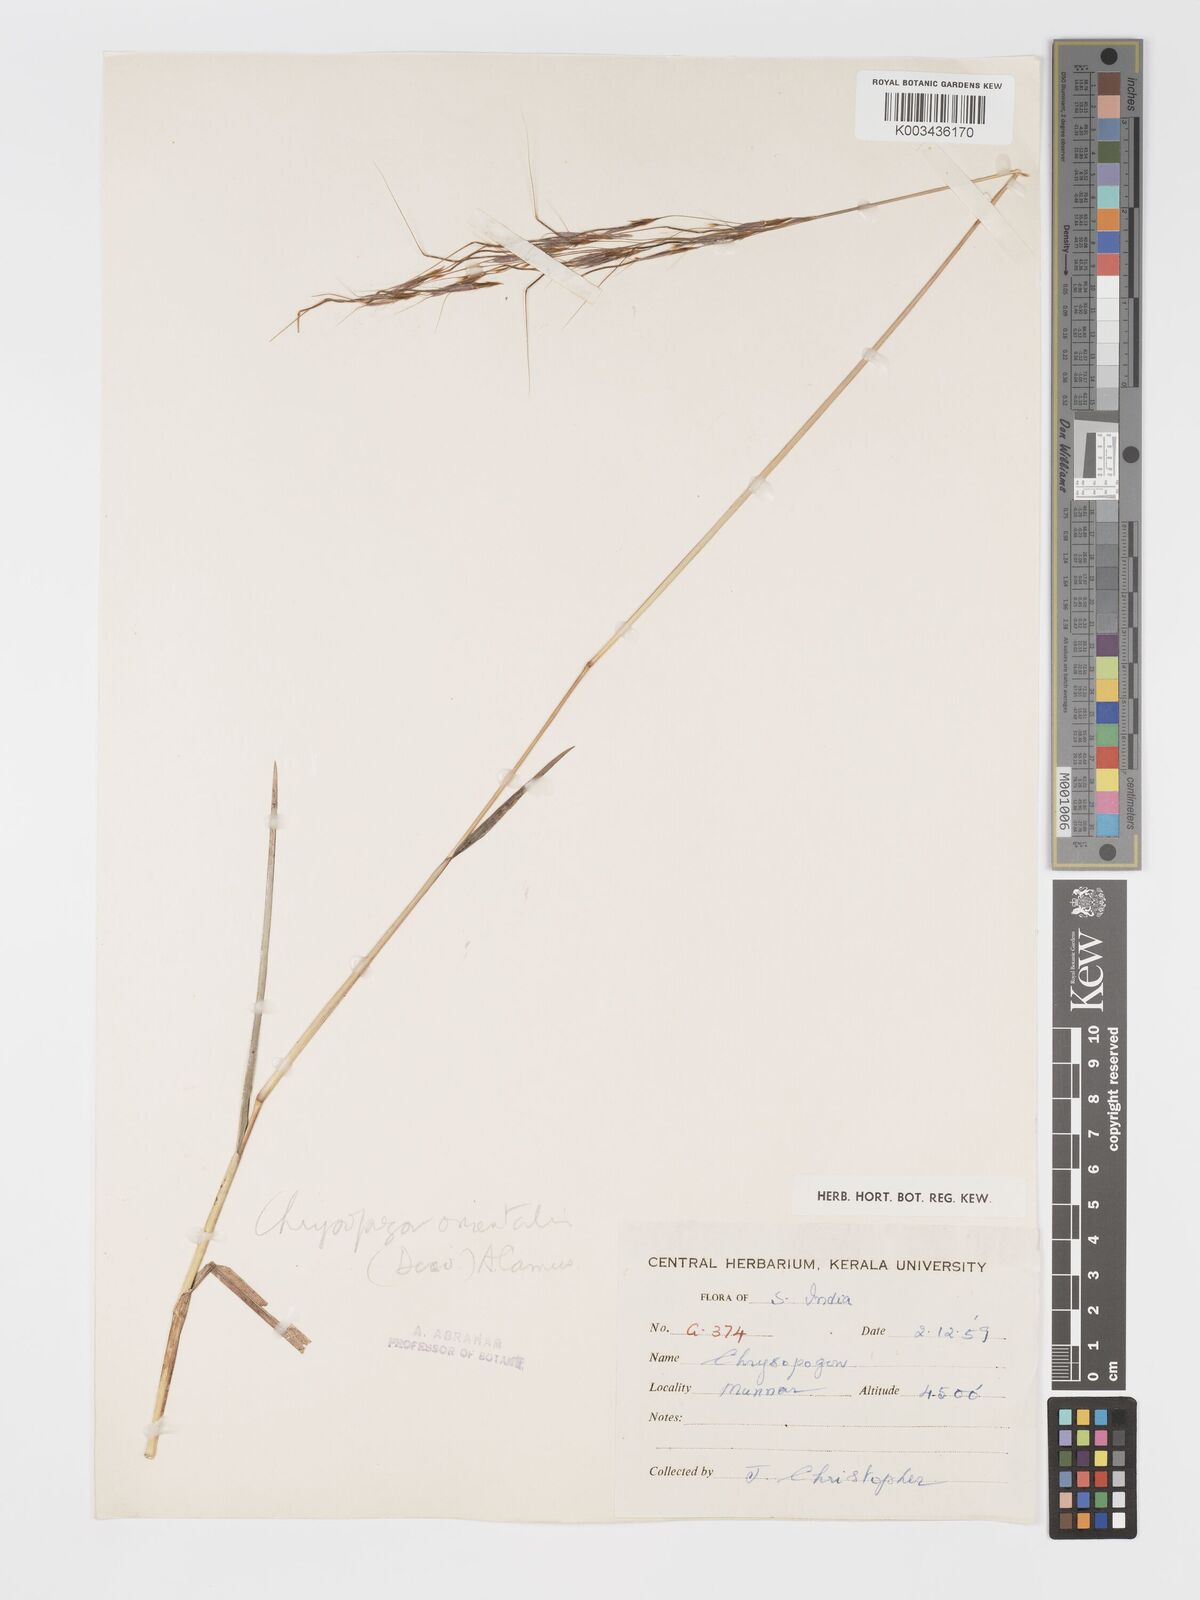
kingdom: Plantae
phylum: Tracheophyta
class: Liliopsida
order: Poales
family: Poaceae
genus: Chrysopogon
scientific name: Chrysopogon orientalis
